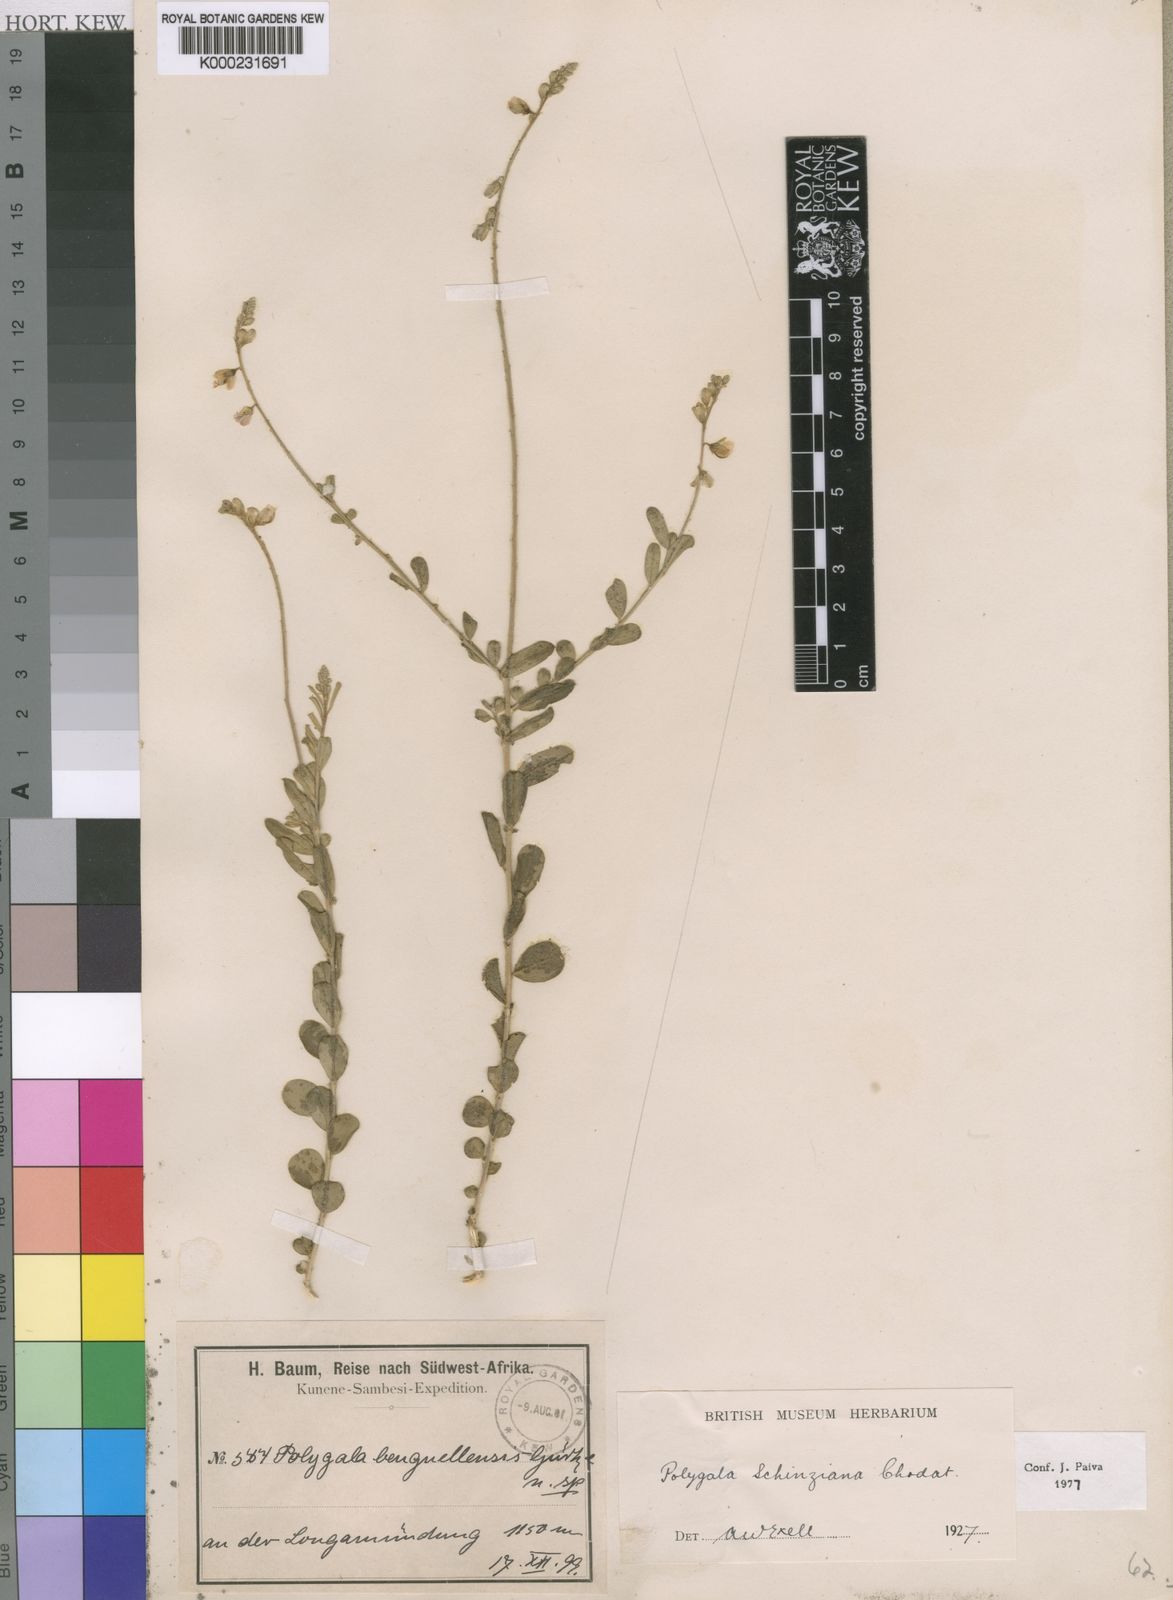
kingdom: Plantae
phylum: Tracheophyta
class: Magnoliopsida
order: Fabales
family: Polygalaceae
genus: Polygala
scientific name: Polygala schinziana
